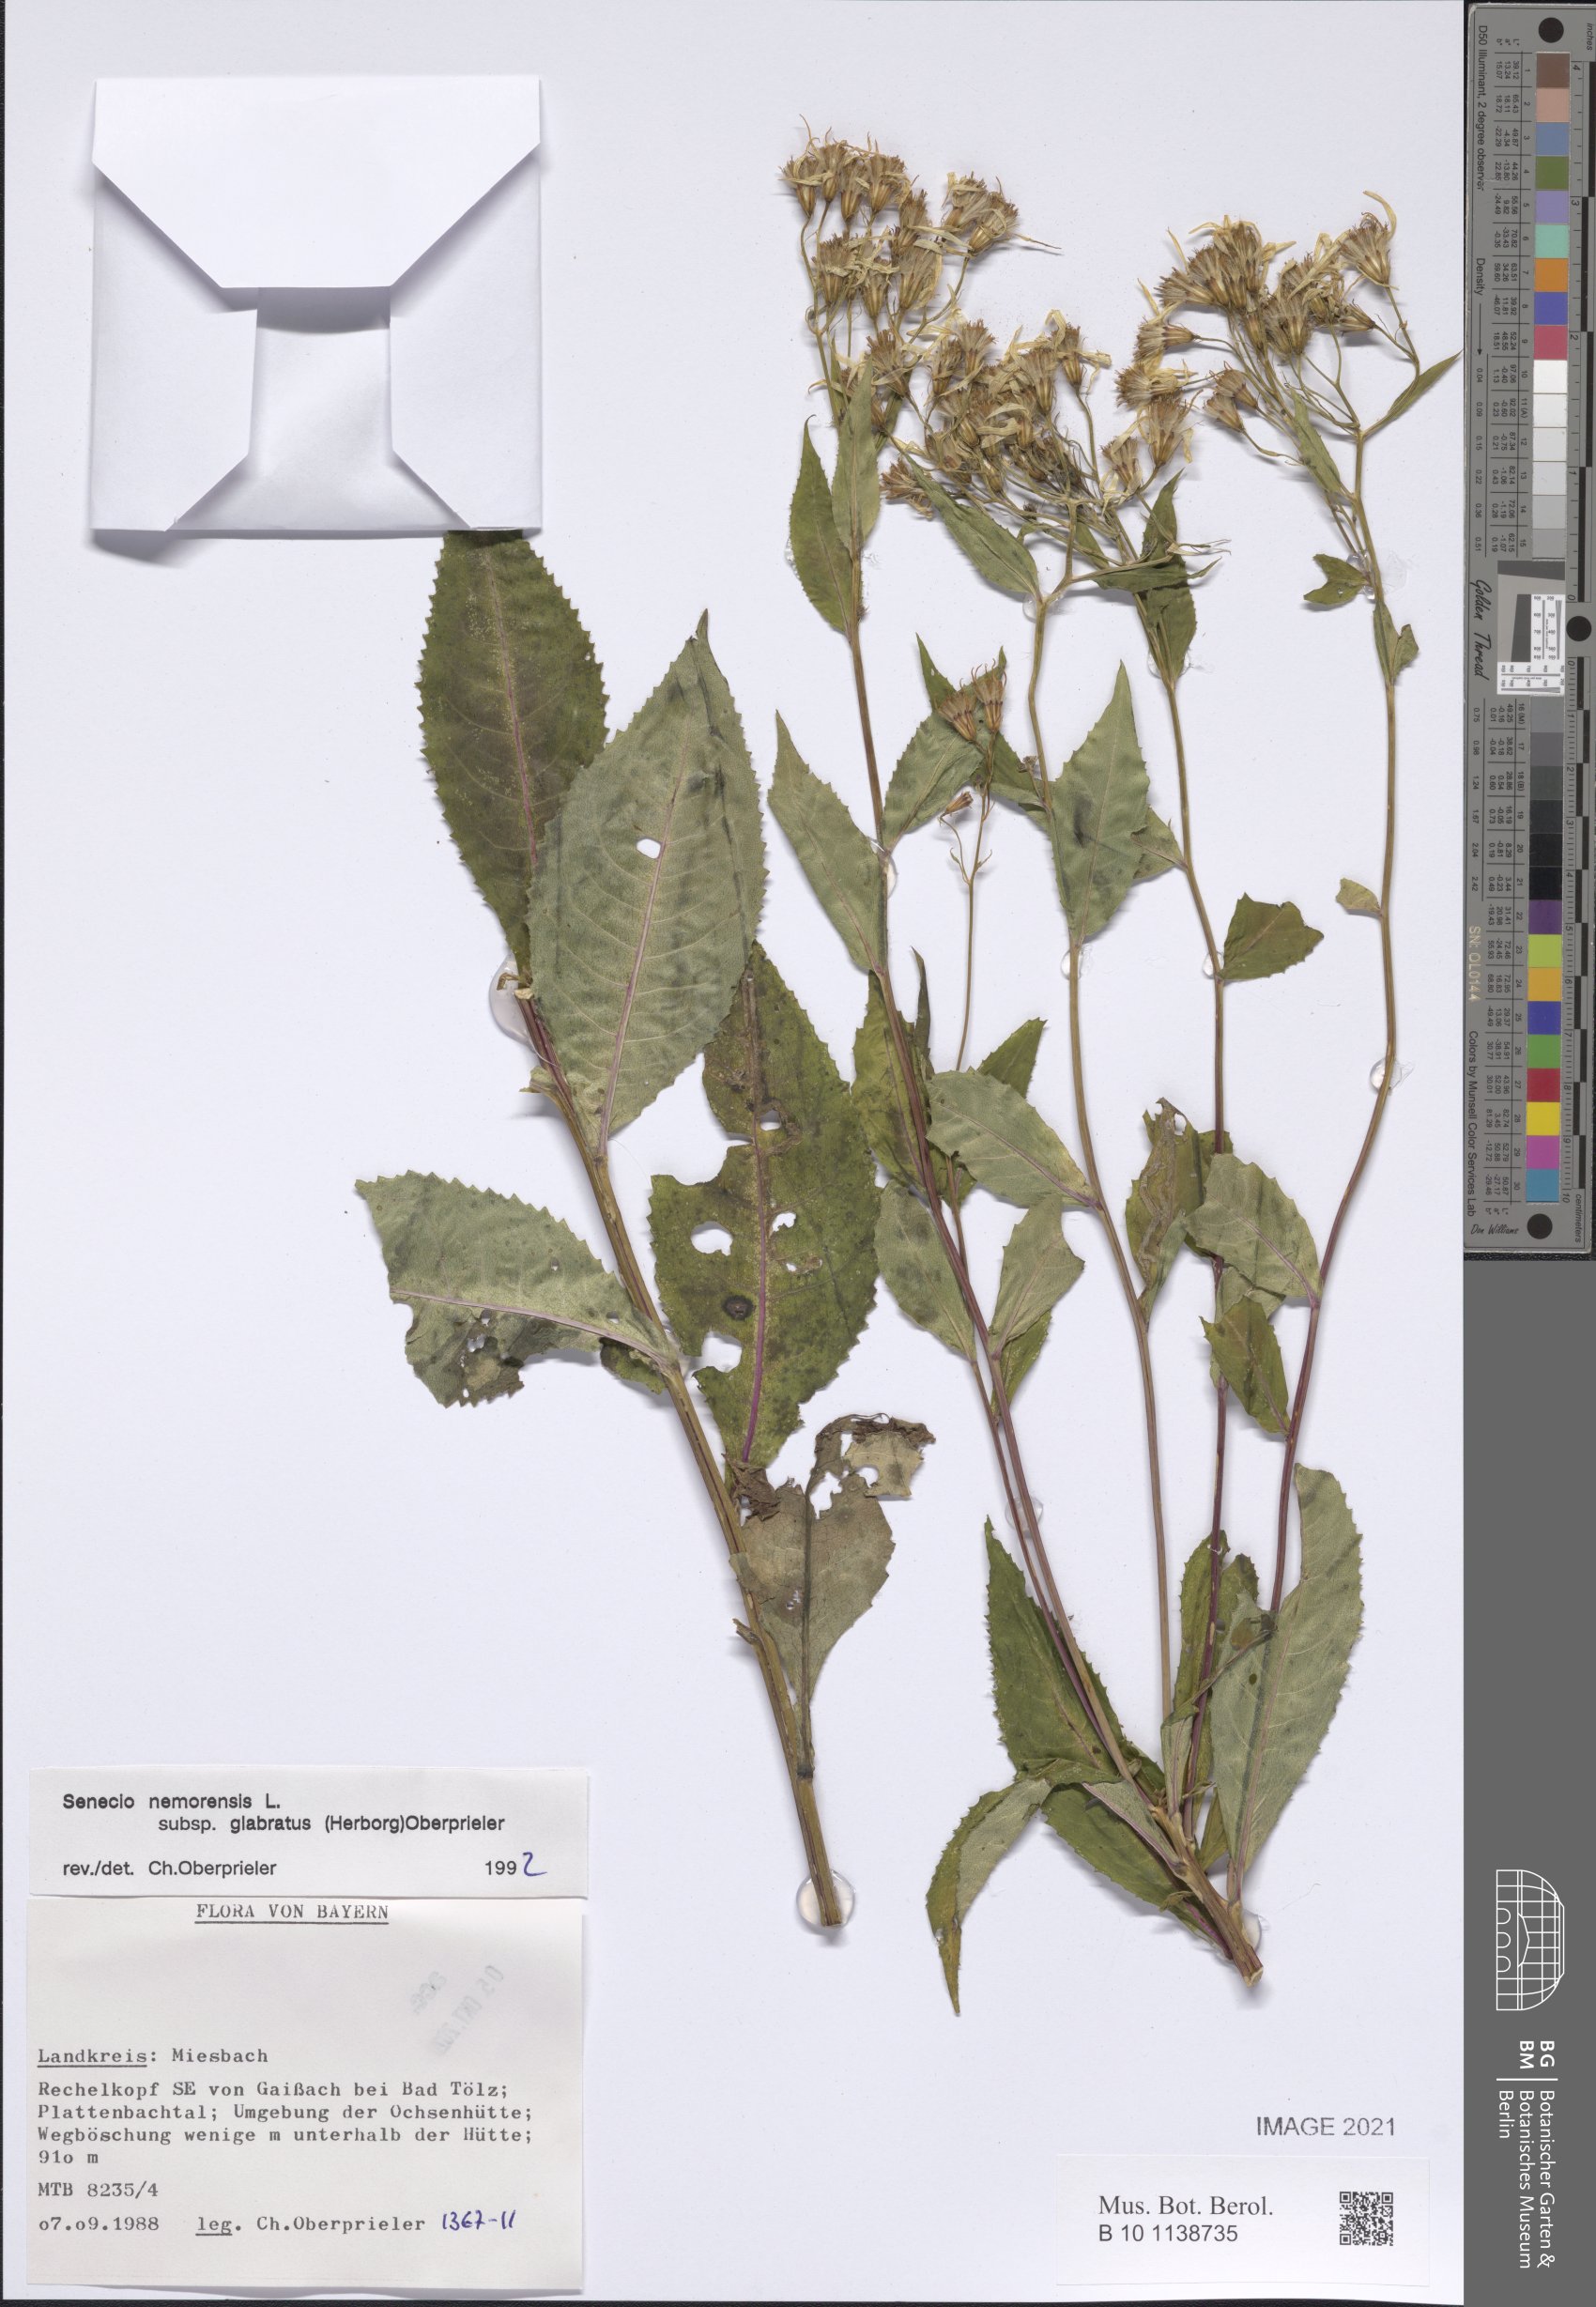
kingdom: Plantae
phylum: Tracheophyta
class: Magnoliopsida
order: Asterales
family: Asteraceae
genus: Senecio
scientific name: Senecio germanicus
